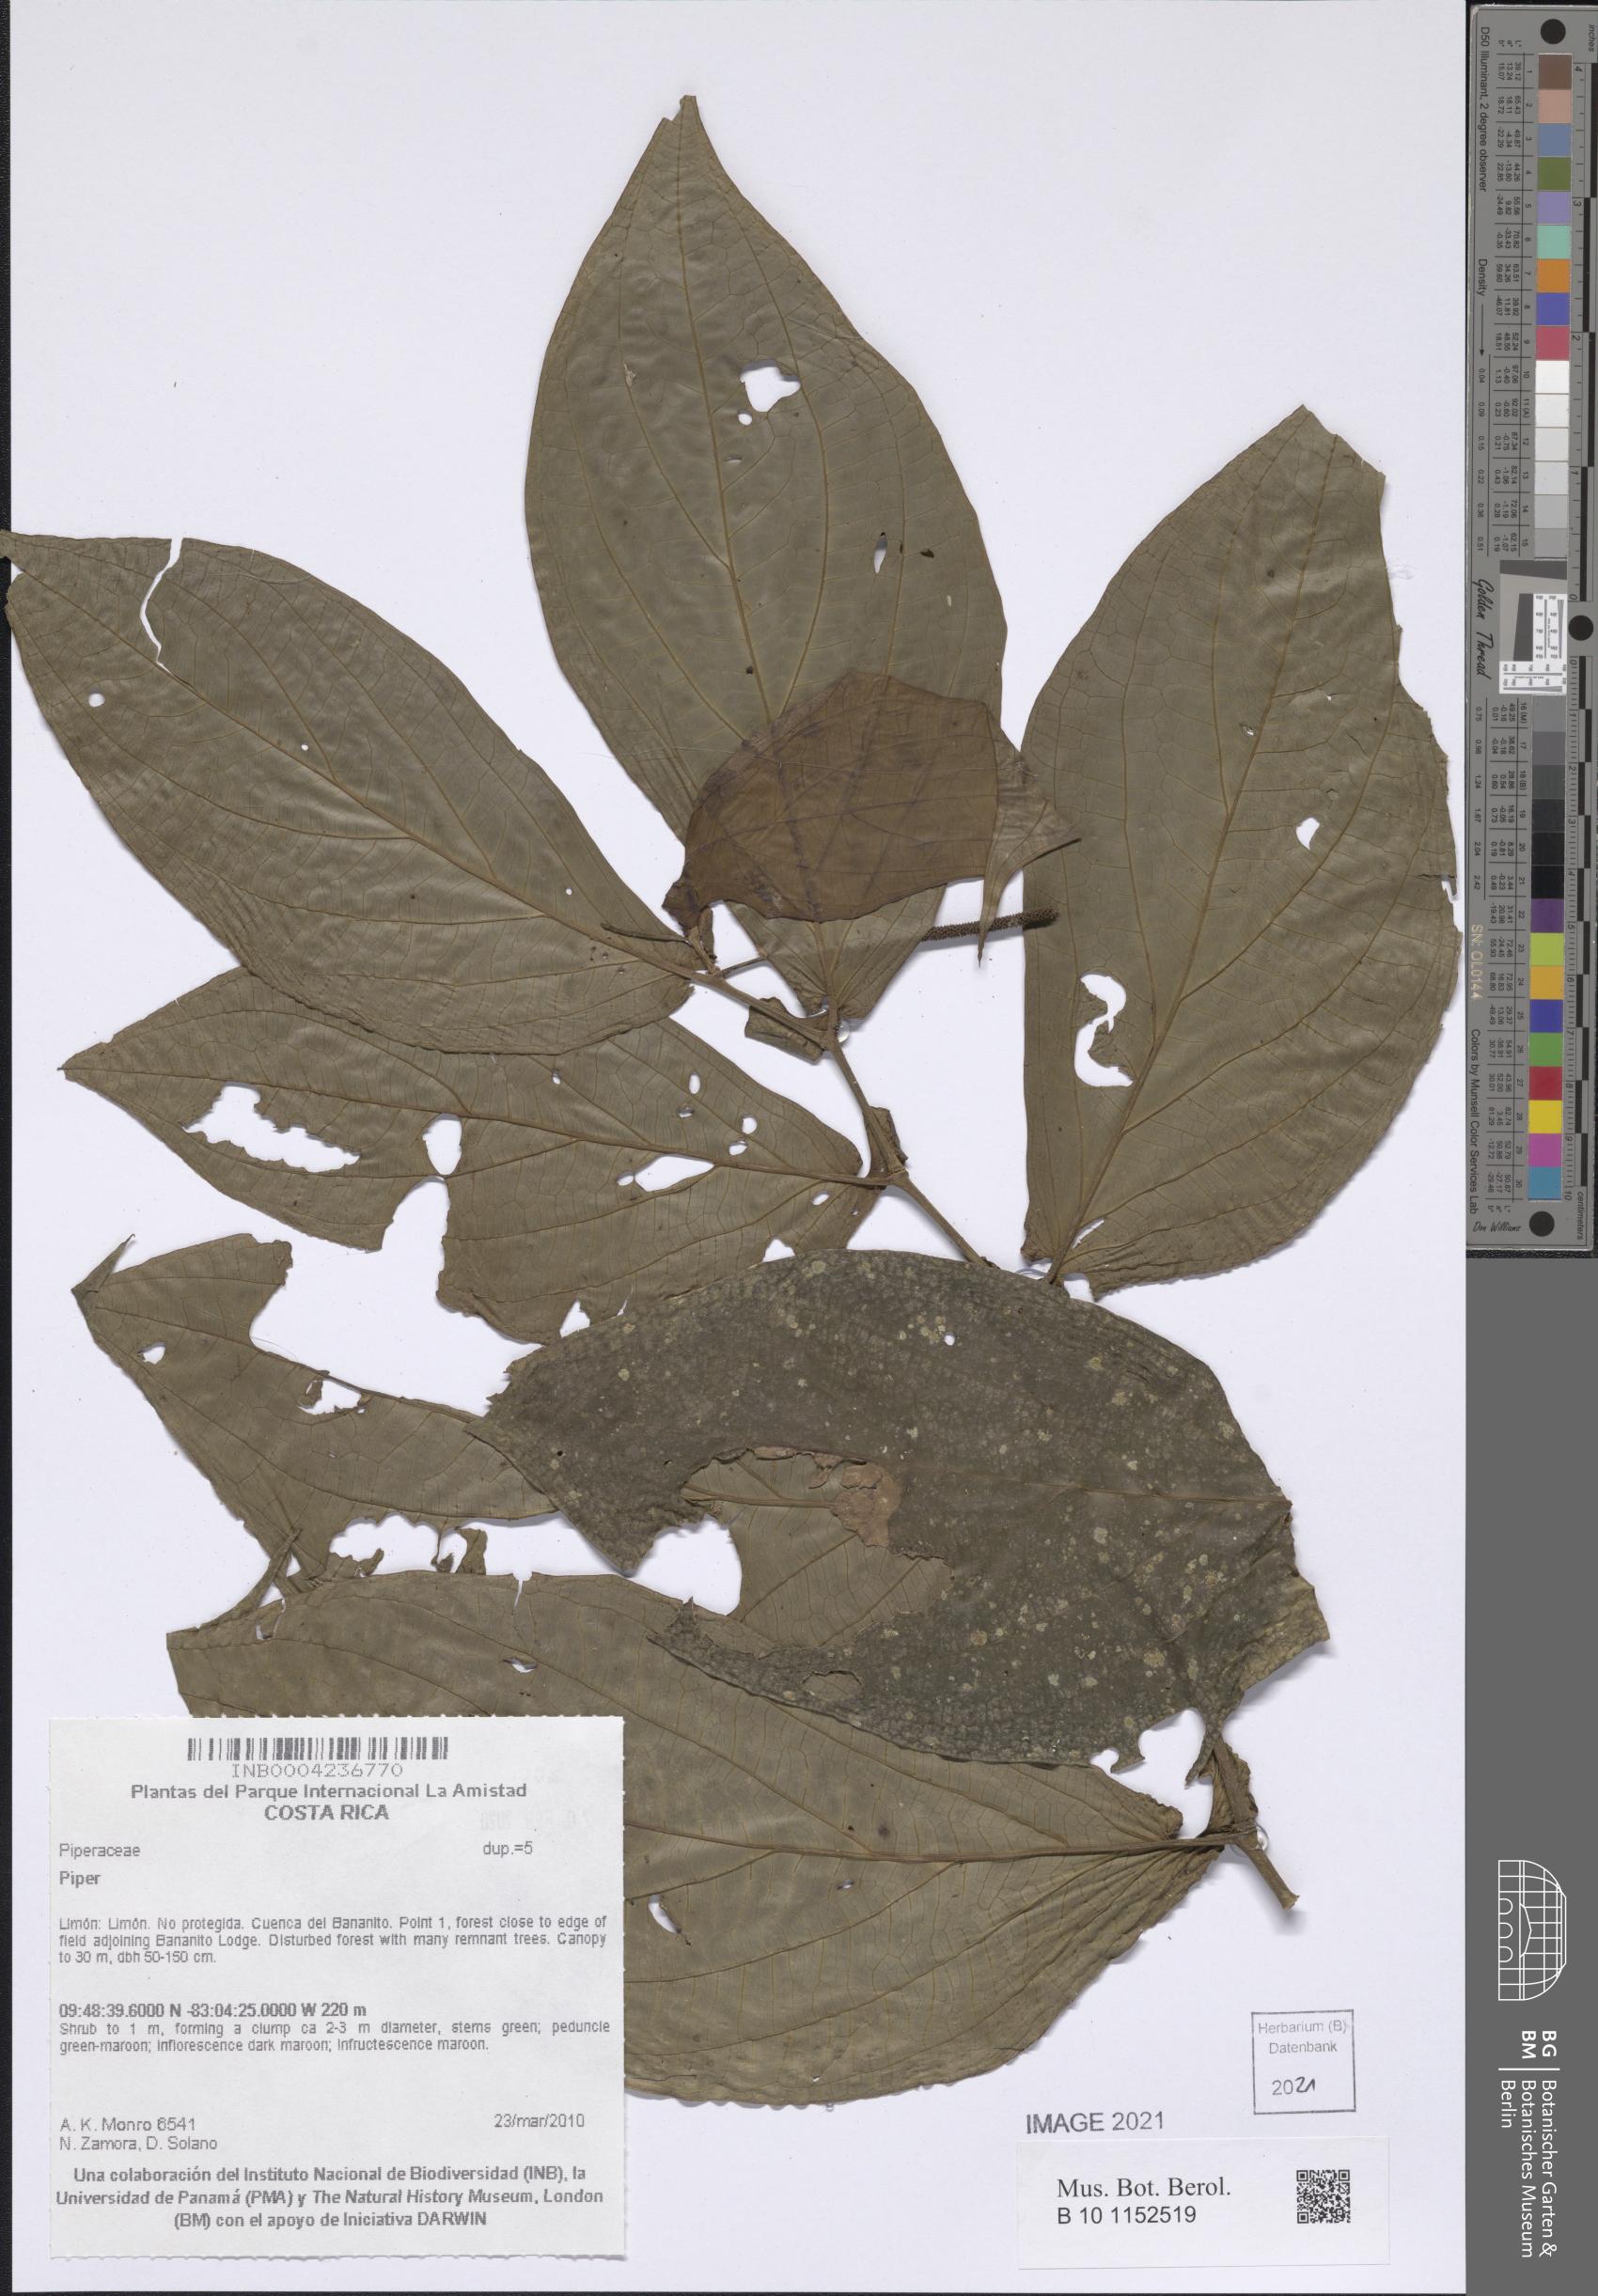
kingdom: Plantae
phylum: Tracheophyta
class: Magnoliopsida
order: Piperales
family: Piperaceae
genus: Piper
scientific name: Piper
